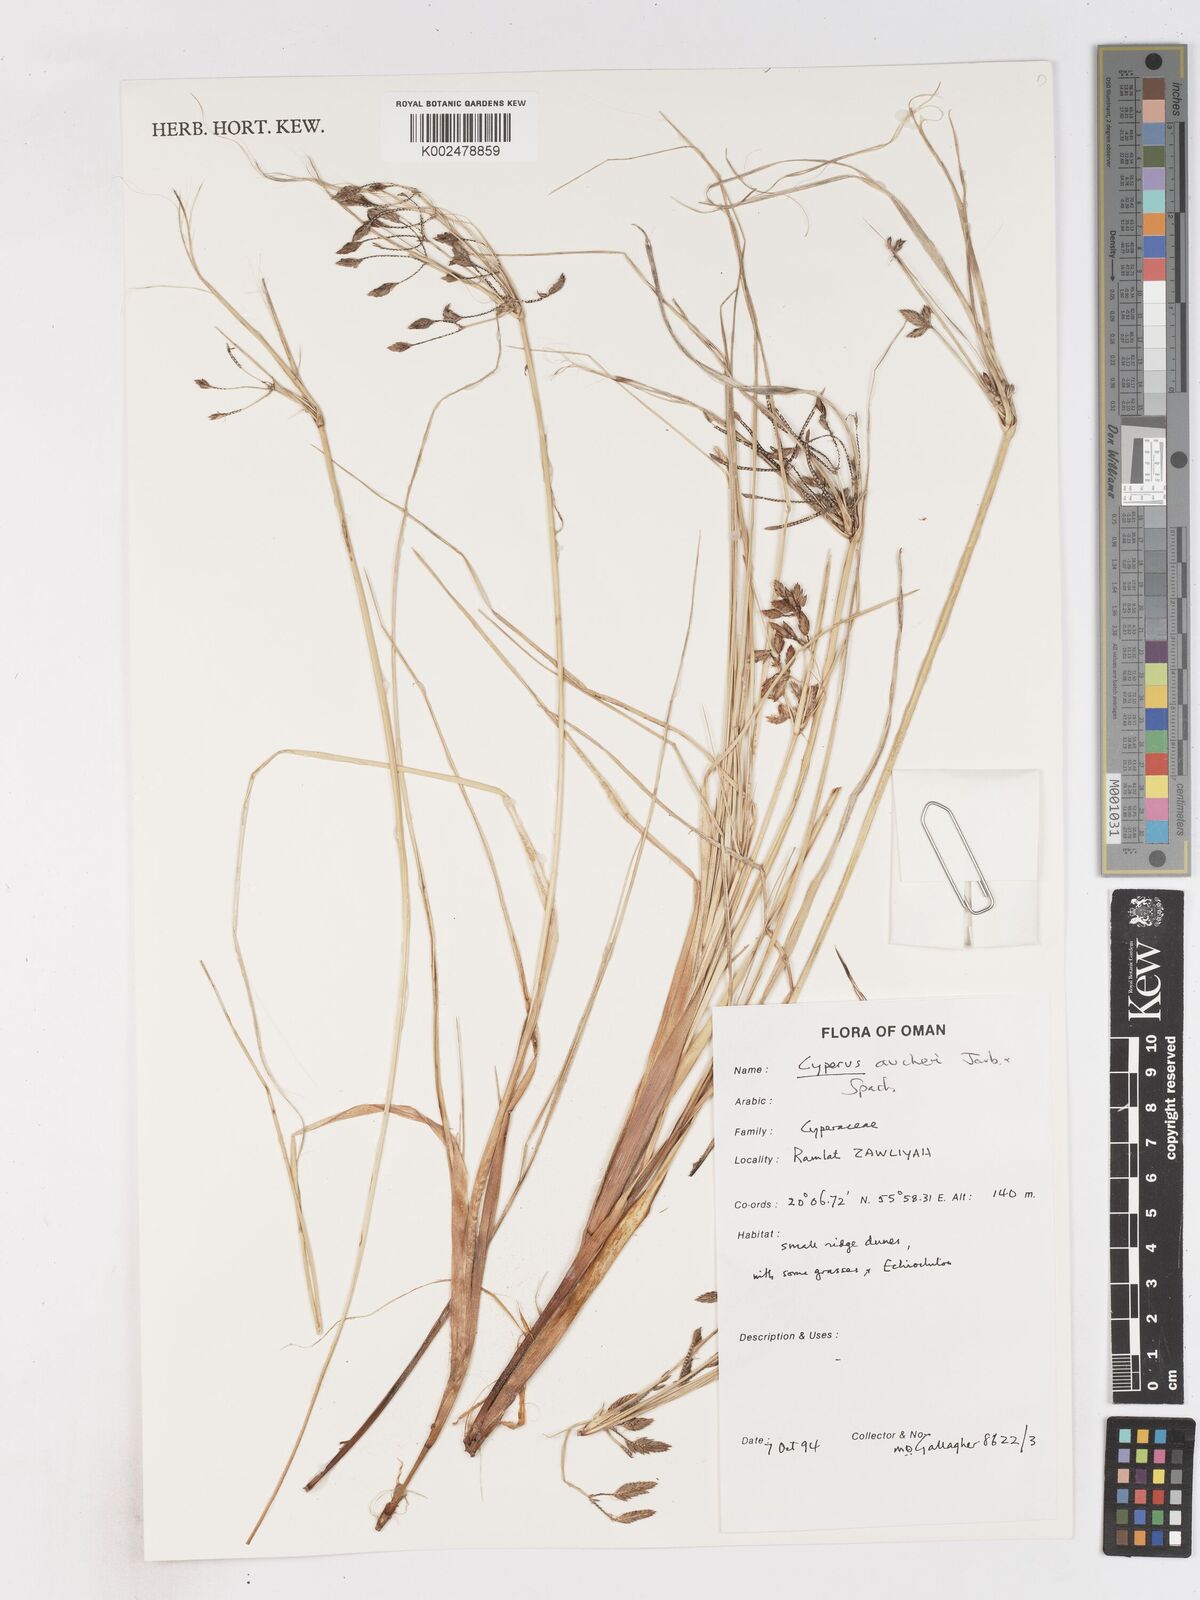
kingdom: Plantae
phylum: Tracheophyta
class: Liliopsida
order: Poales
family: Cyperaceae
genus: Cyperus
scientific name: Cyperus conglomeratus
